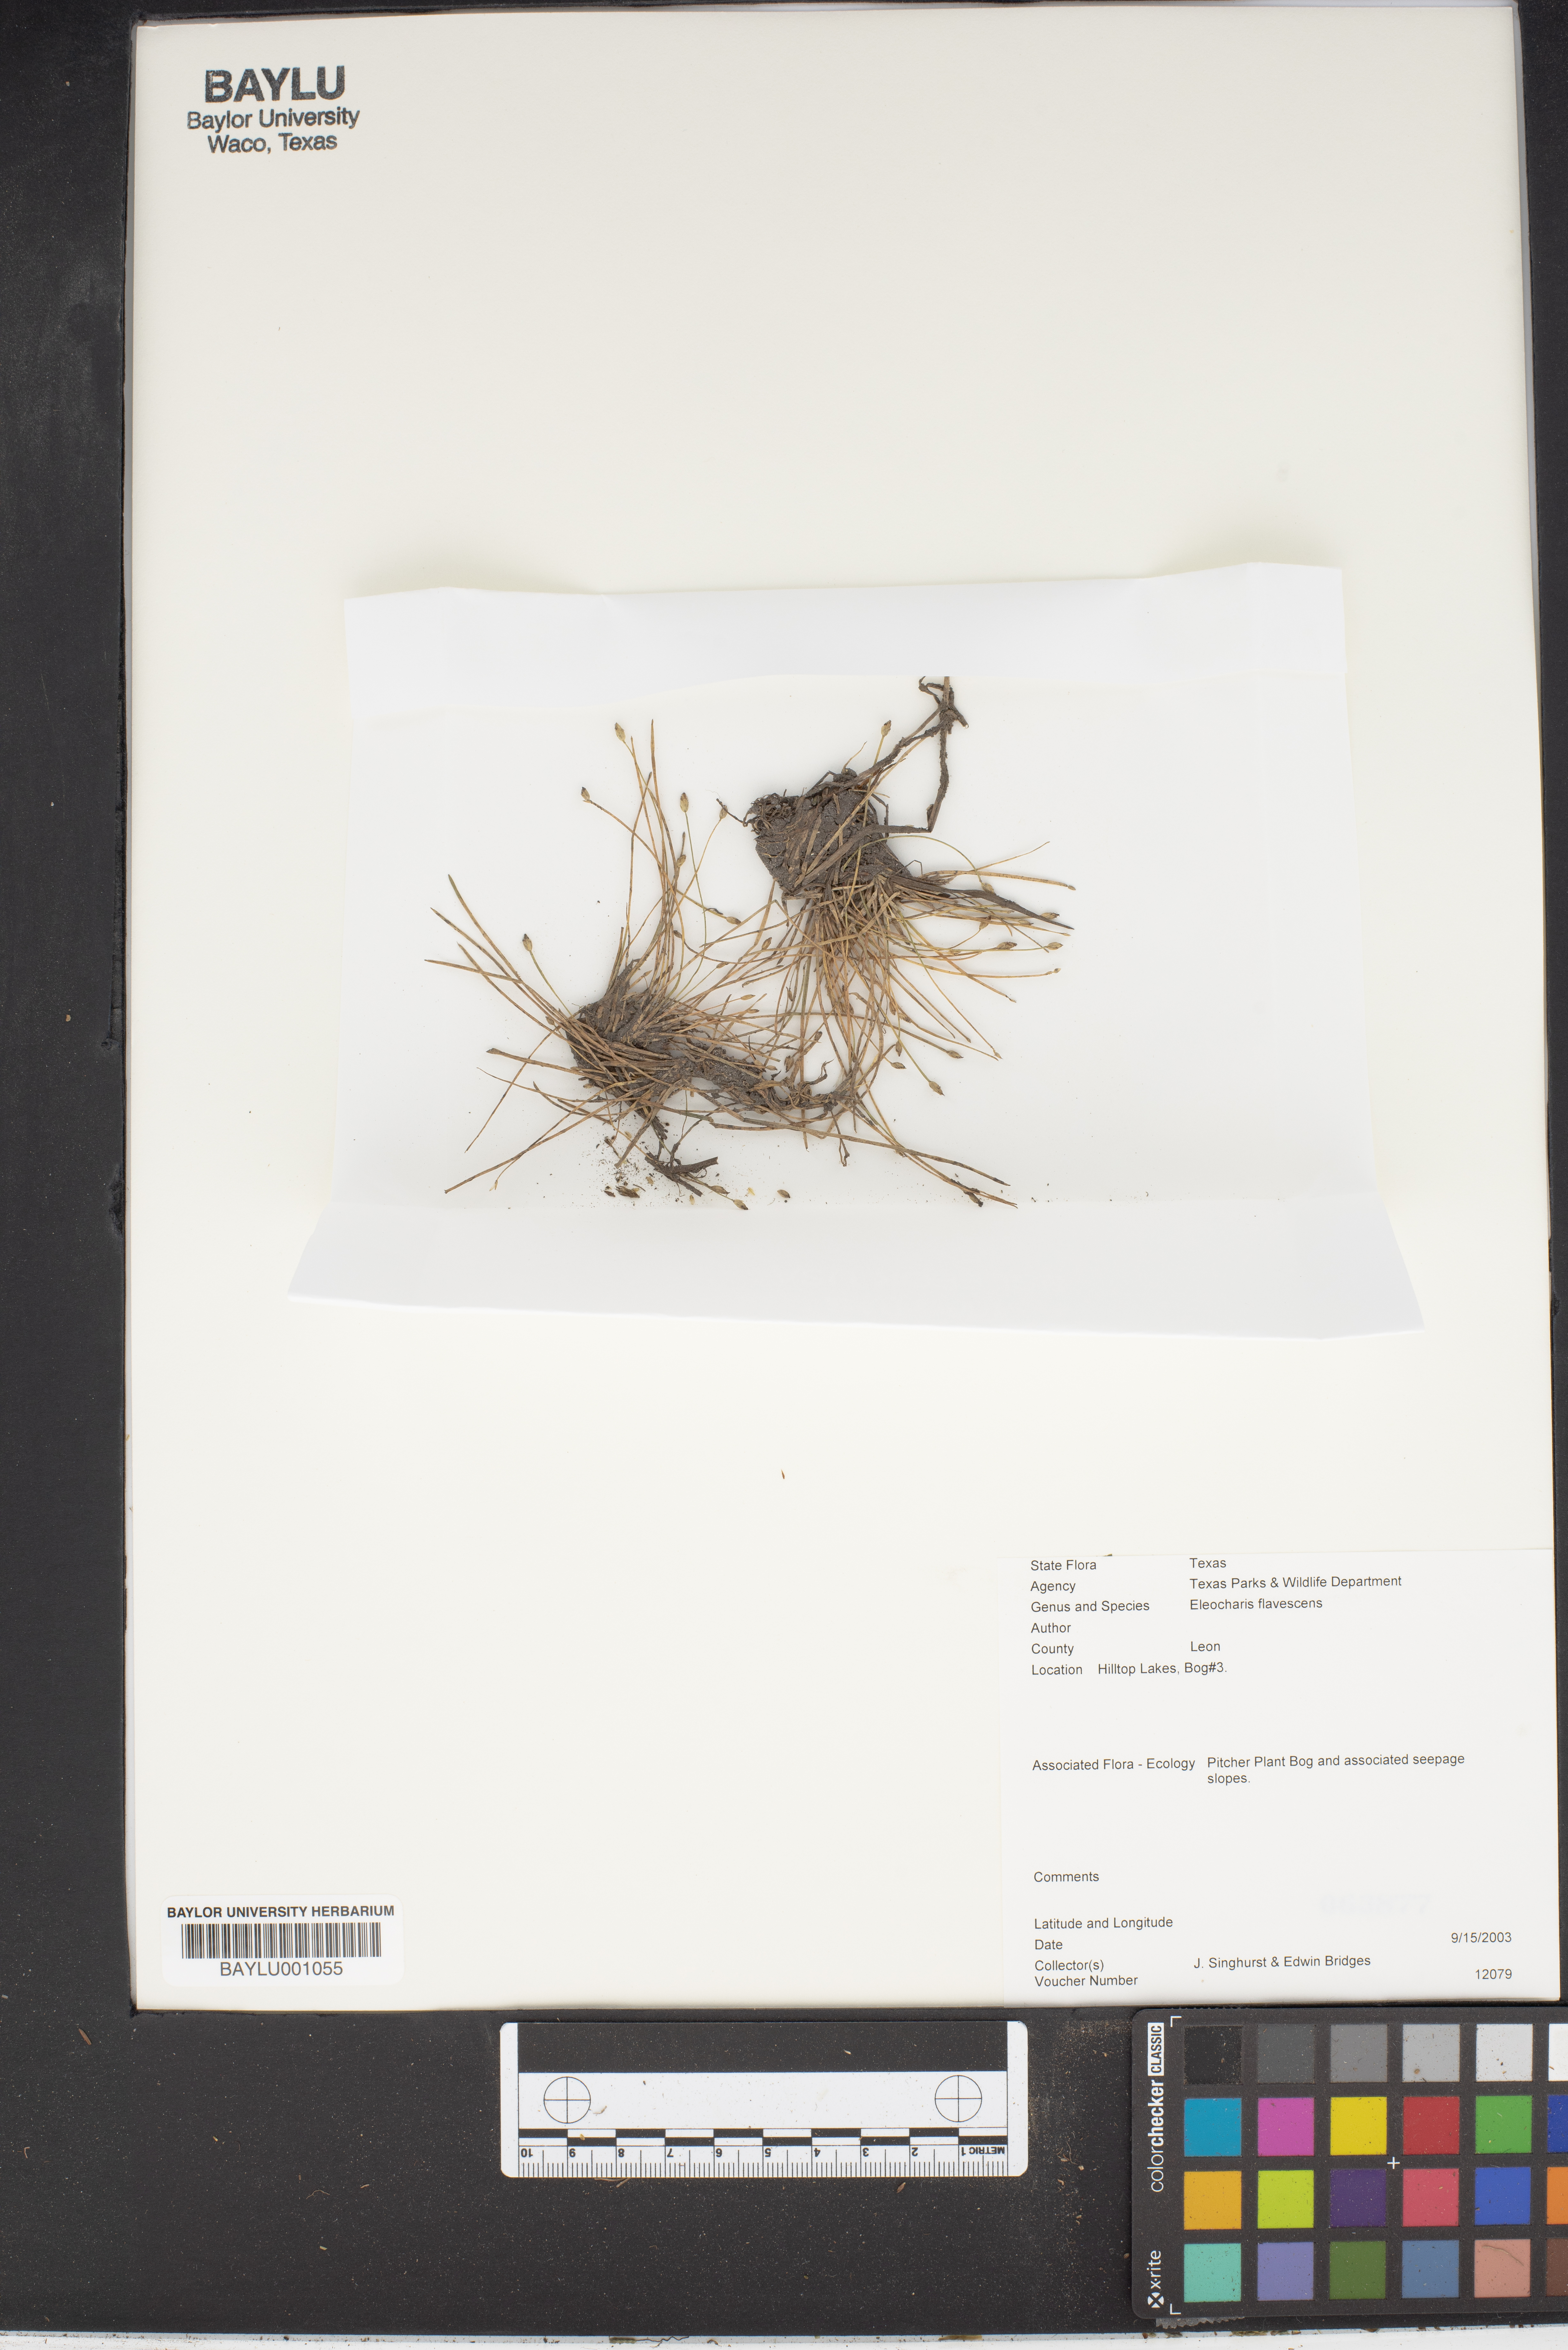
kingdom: Plantae
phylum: Tracheophyta
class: Liliopsida
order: Poales
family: Cyperaceae
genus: Eleocharis
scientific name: Eleocharis flavescens
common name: Yellow spikerush
